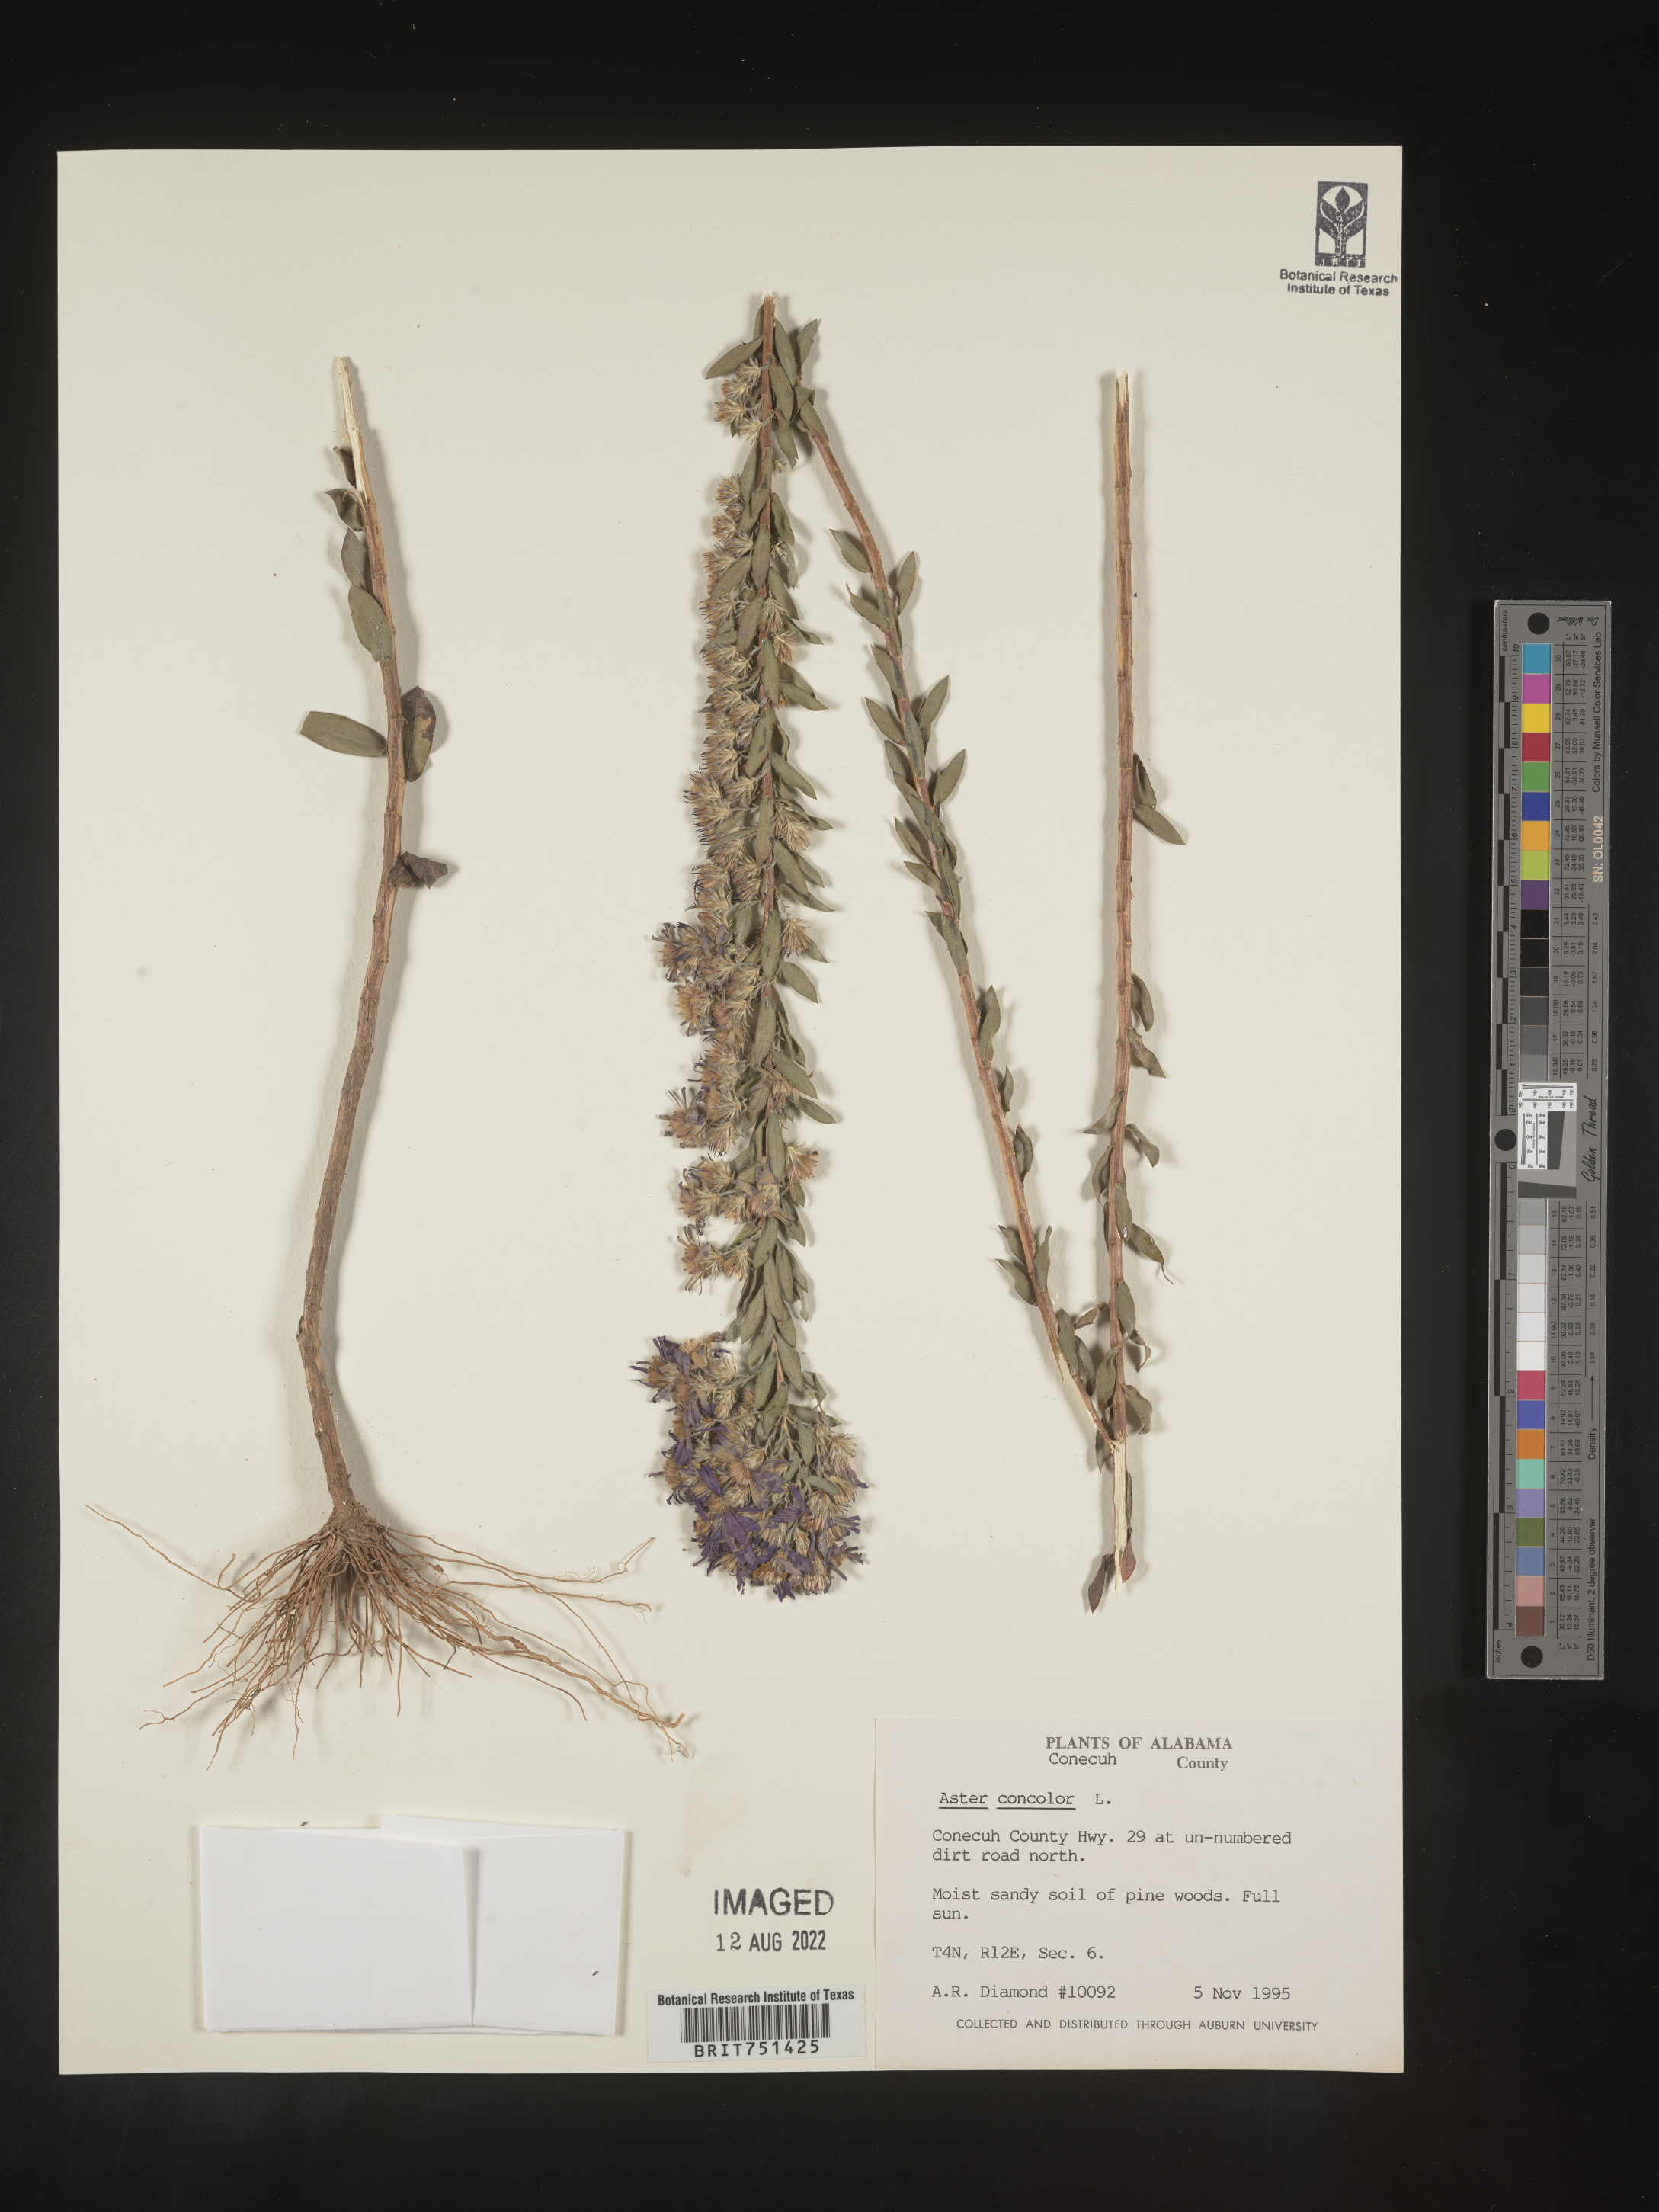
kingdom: Plantae
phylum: Tracheophyta
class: Magnoliopsida
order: Asterales
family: Asteraceae
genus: Symphyotrichum
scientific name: Symphyotrichum concolor
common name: Eastern silver aster
